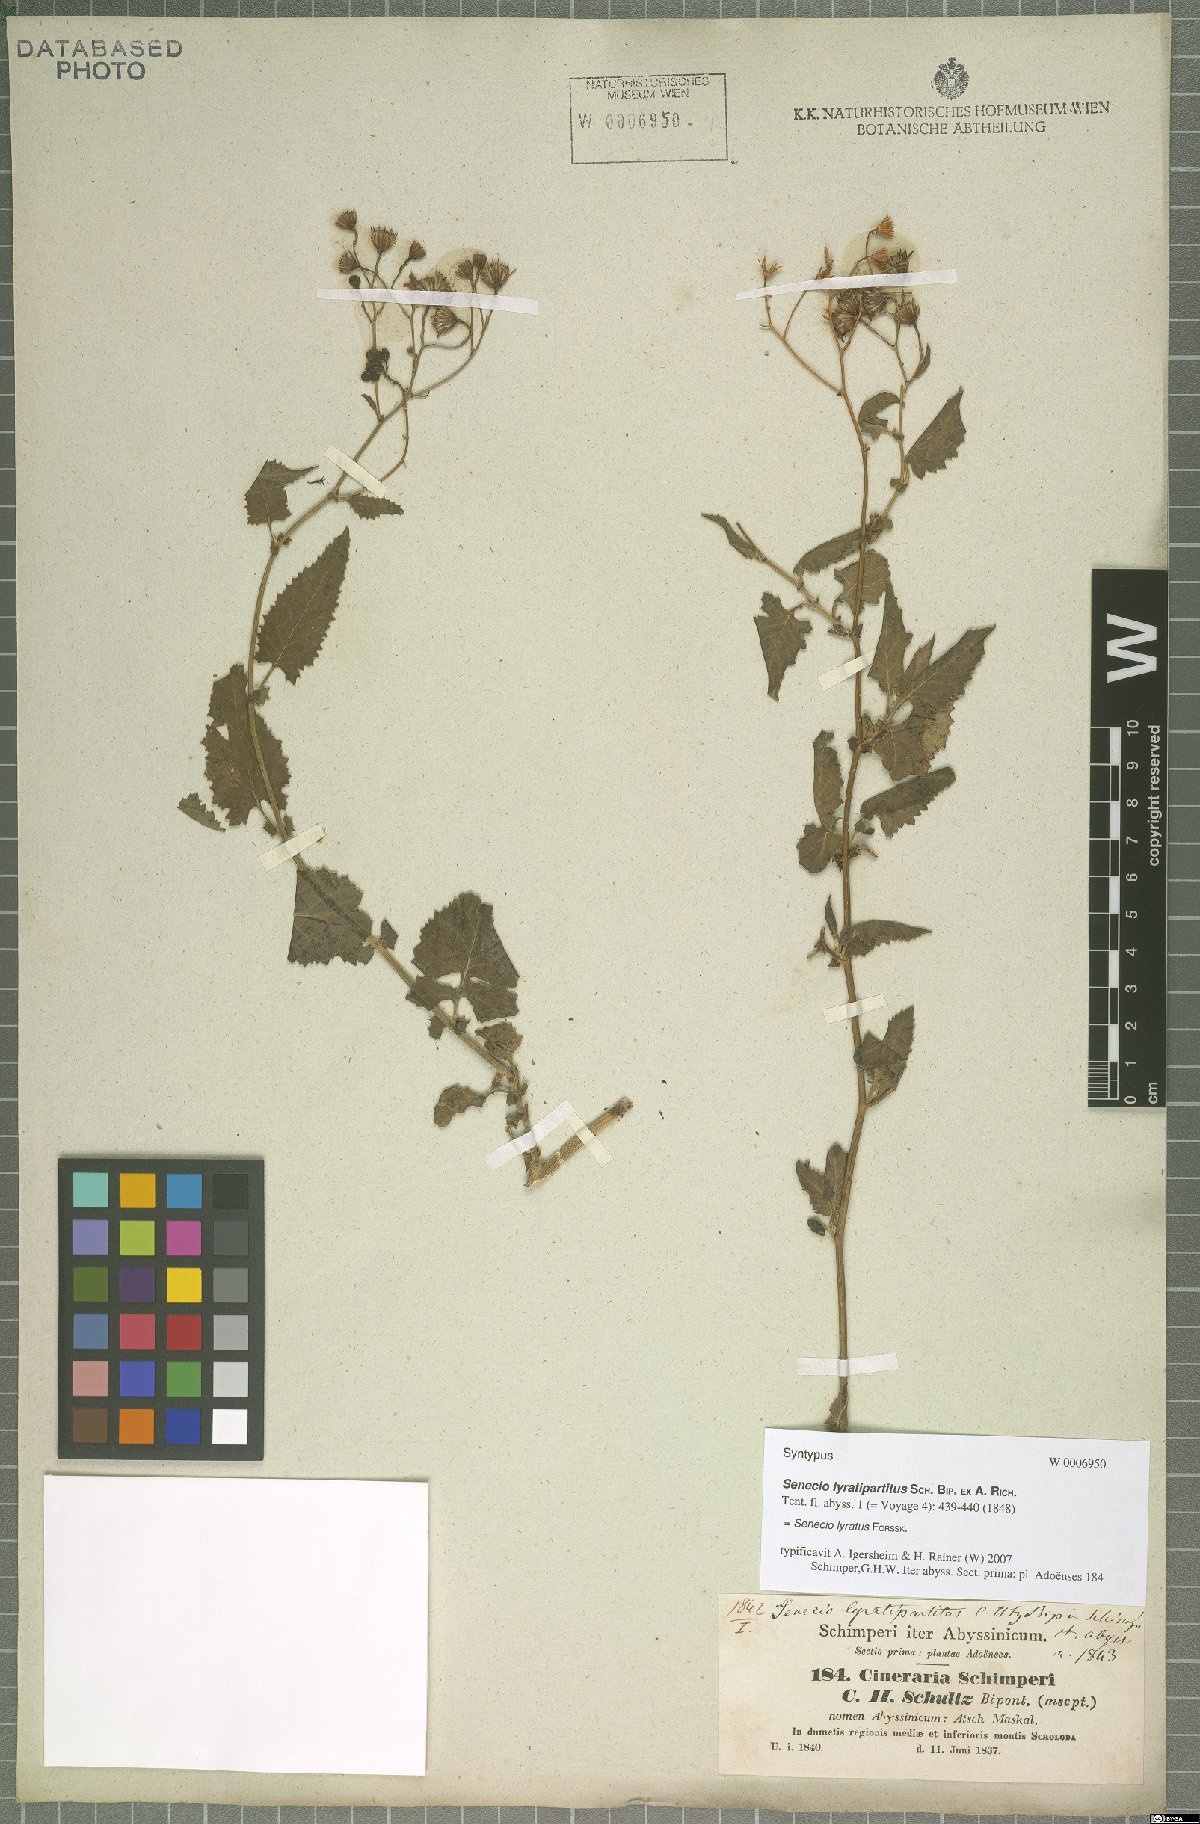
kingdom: Plantae
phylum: Tracheophyta
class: Magnoliopsida
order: Asterales
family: Asteraceae
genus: Senecio
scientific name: Senecio lyratus
